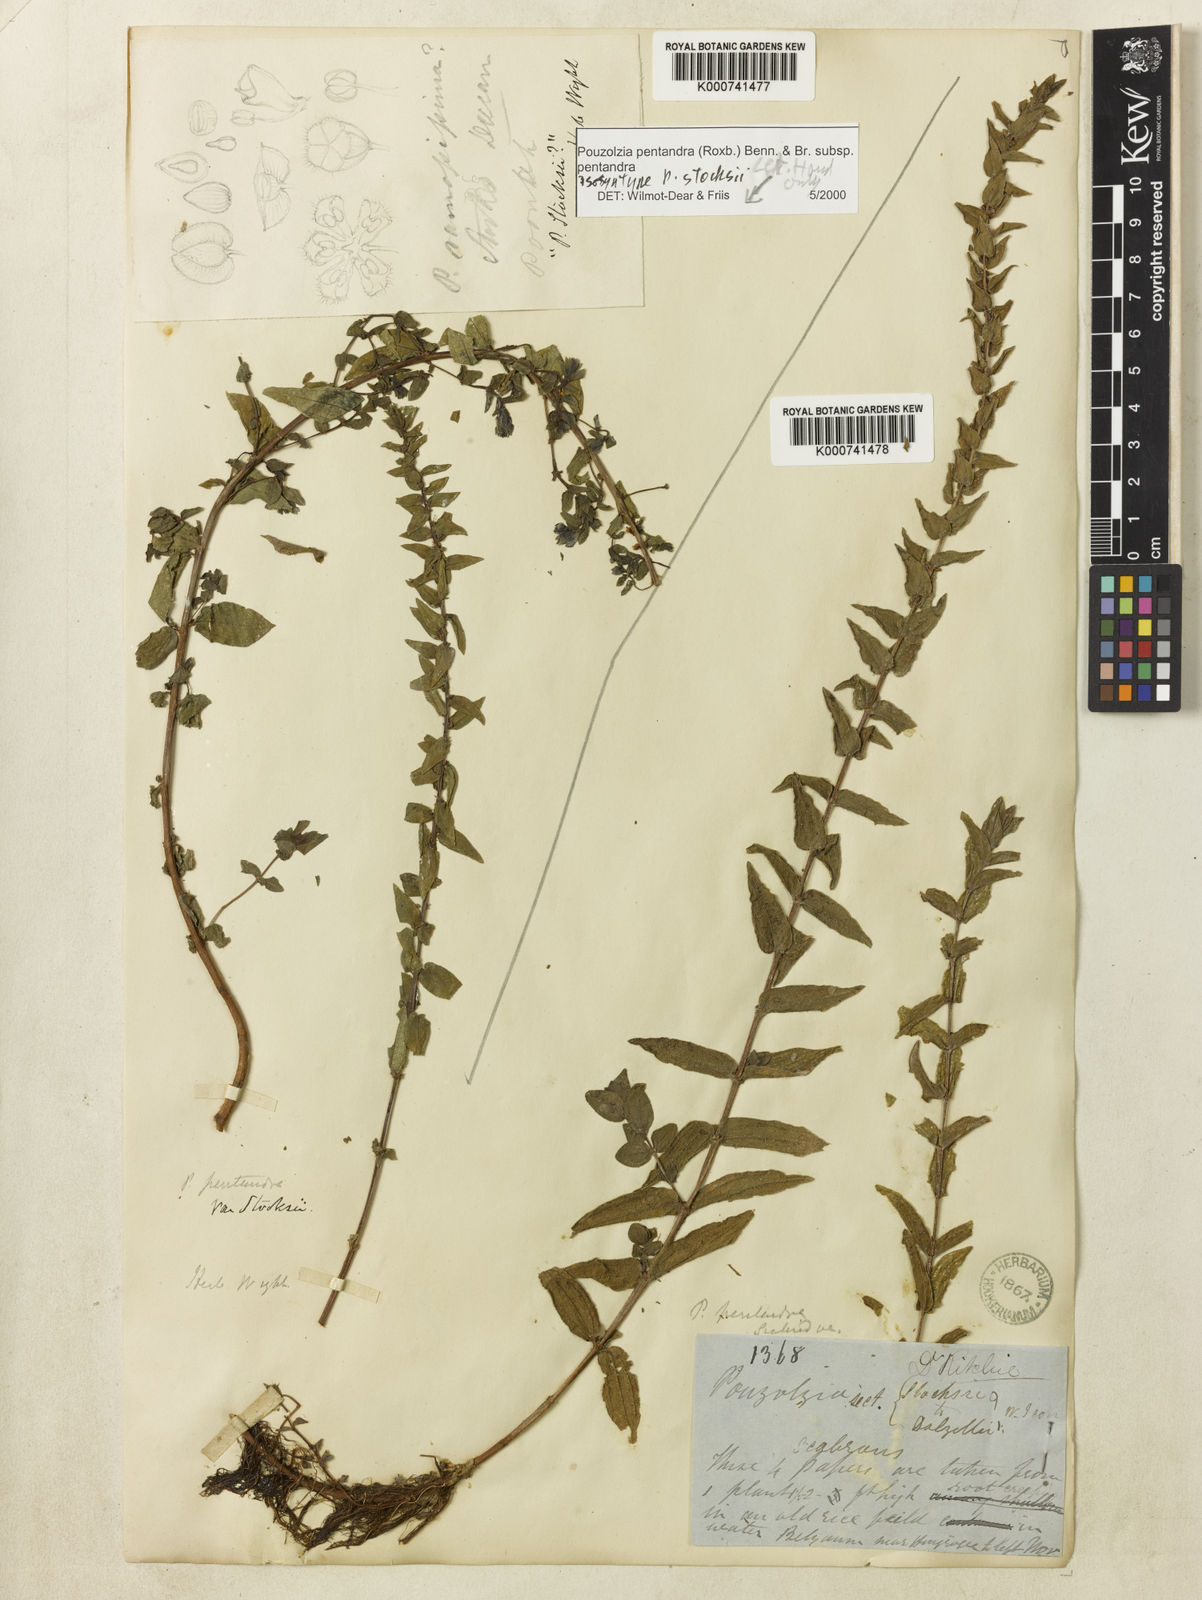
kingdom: Plantae
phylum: Tracheophyta
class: Magnoliopsida
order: Rosales
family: Urticaceae
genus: Gonostegia
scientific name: Gonostegia pentandra
